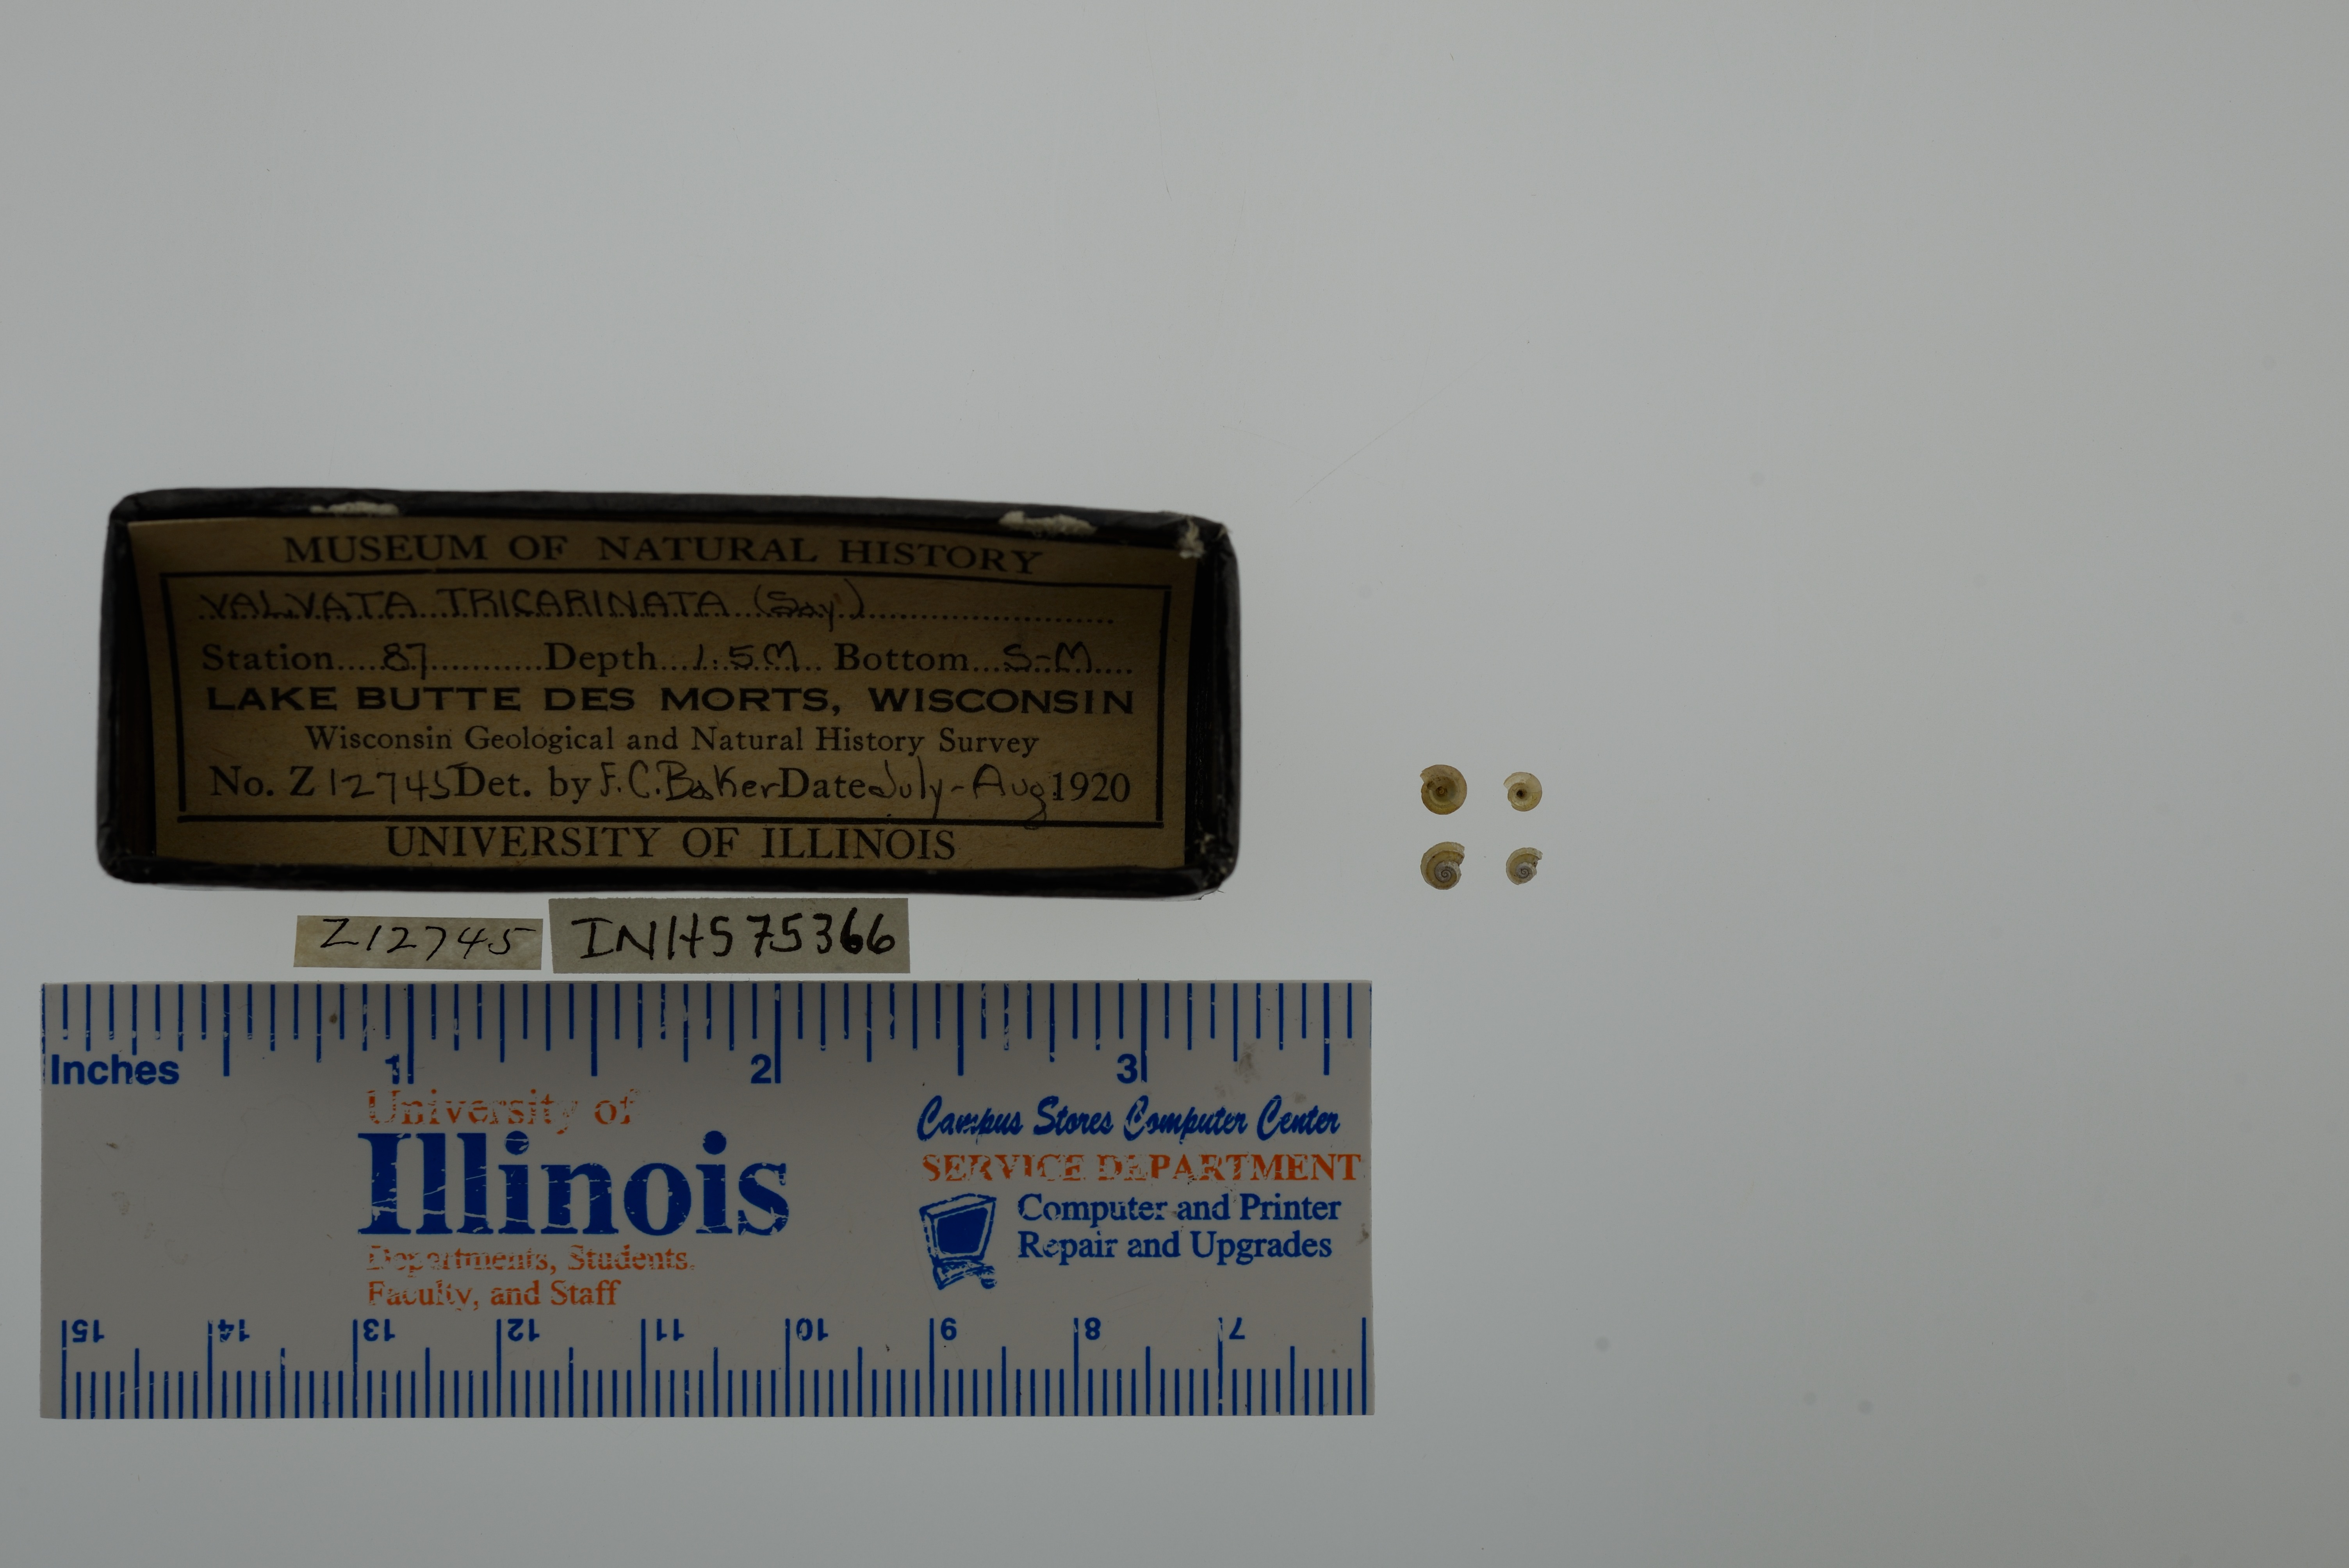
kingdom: Animalia
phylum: Mollusca
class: Gastropoda
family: Valvatidae
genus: Valvata
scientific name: Valvata tricarinata
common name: Three-ridge valvata
